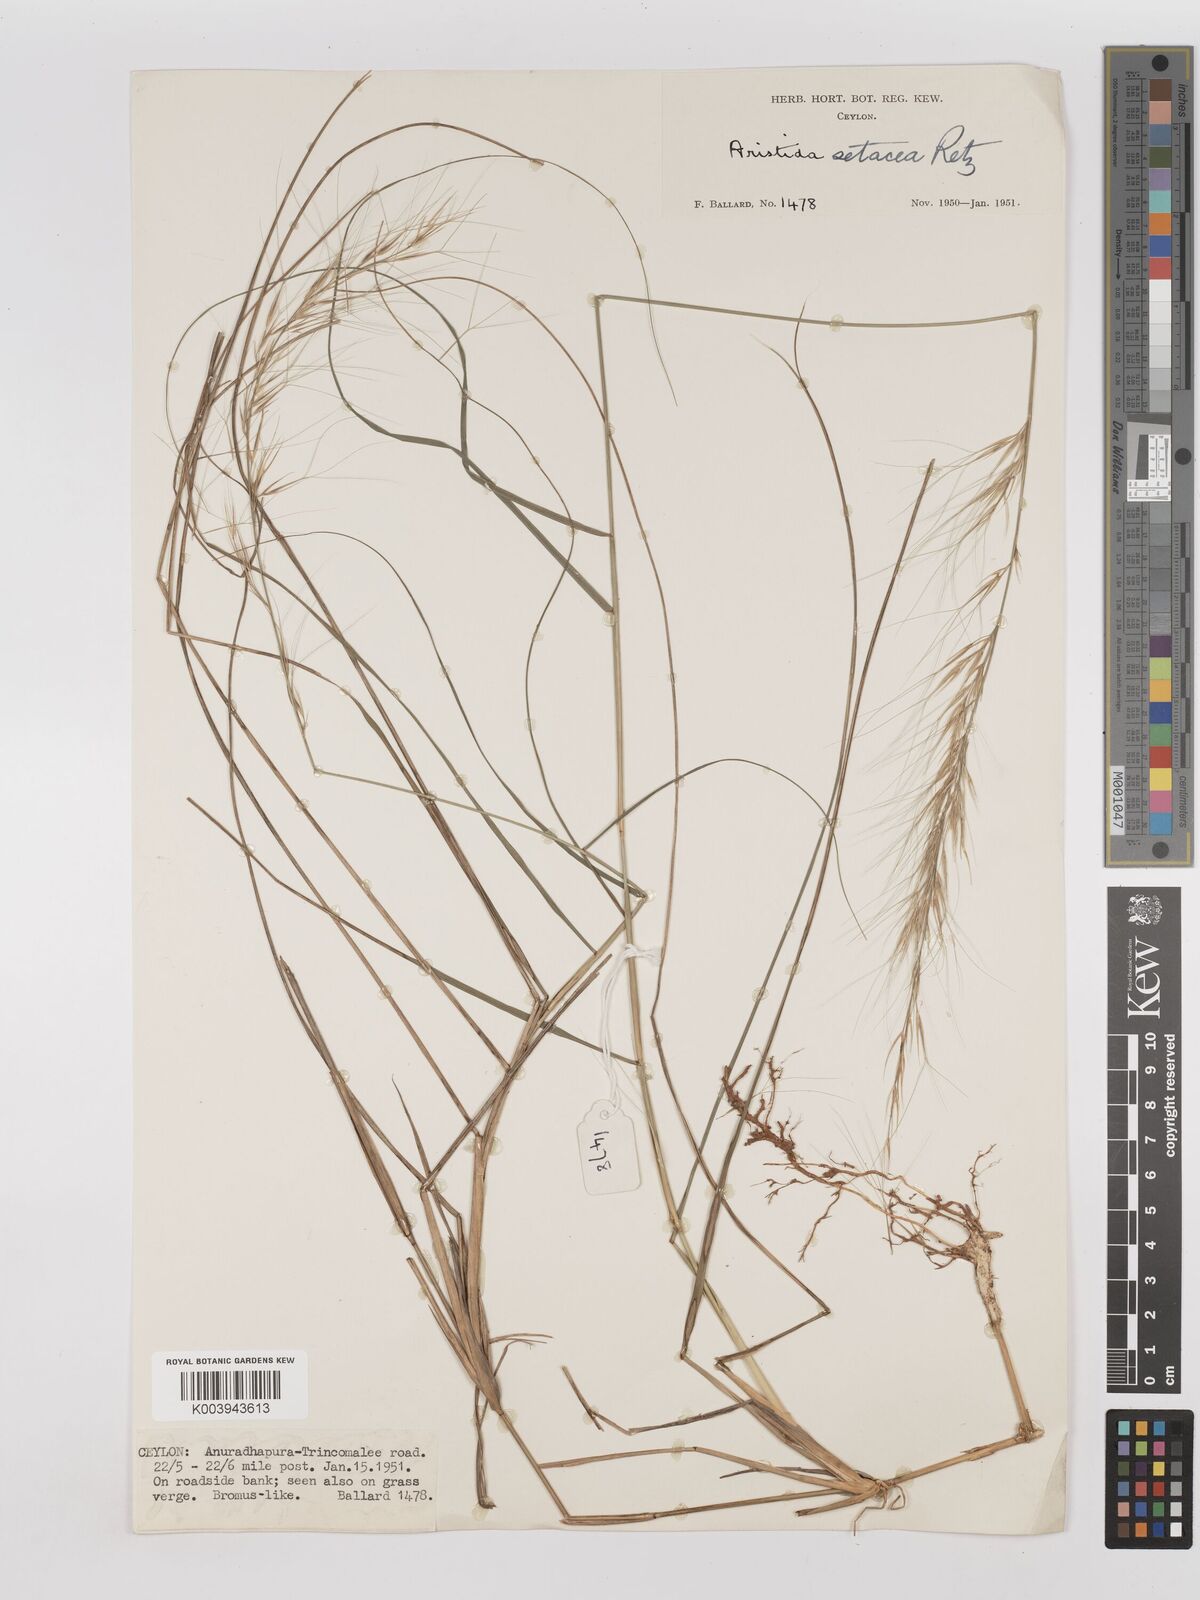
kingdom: Plantae
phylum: Tracheophyta
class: Liliopsida
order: Poales
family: Poaceae
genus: Aristida
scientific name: Aristida setacea
